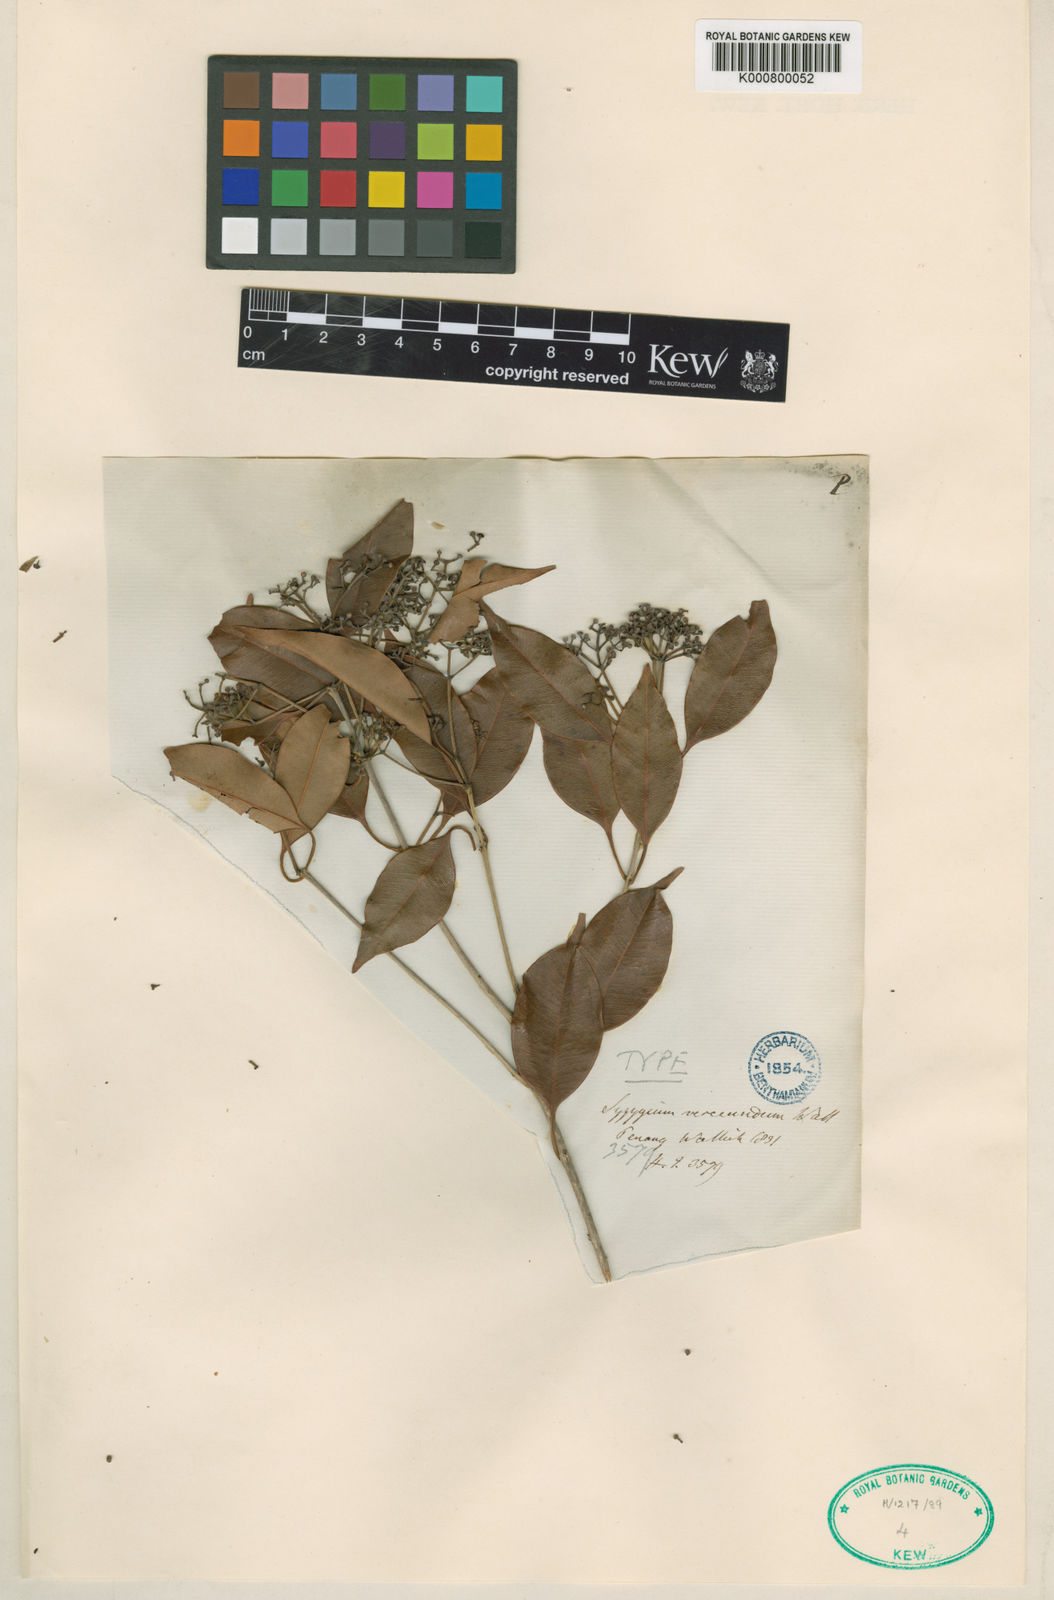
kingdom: Plantae
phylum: Tracheophyta
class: Magnoliopsida
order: Myrtales
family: Myrtaceae
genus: Syzygium
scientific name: Syzygium leucoxylon
